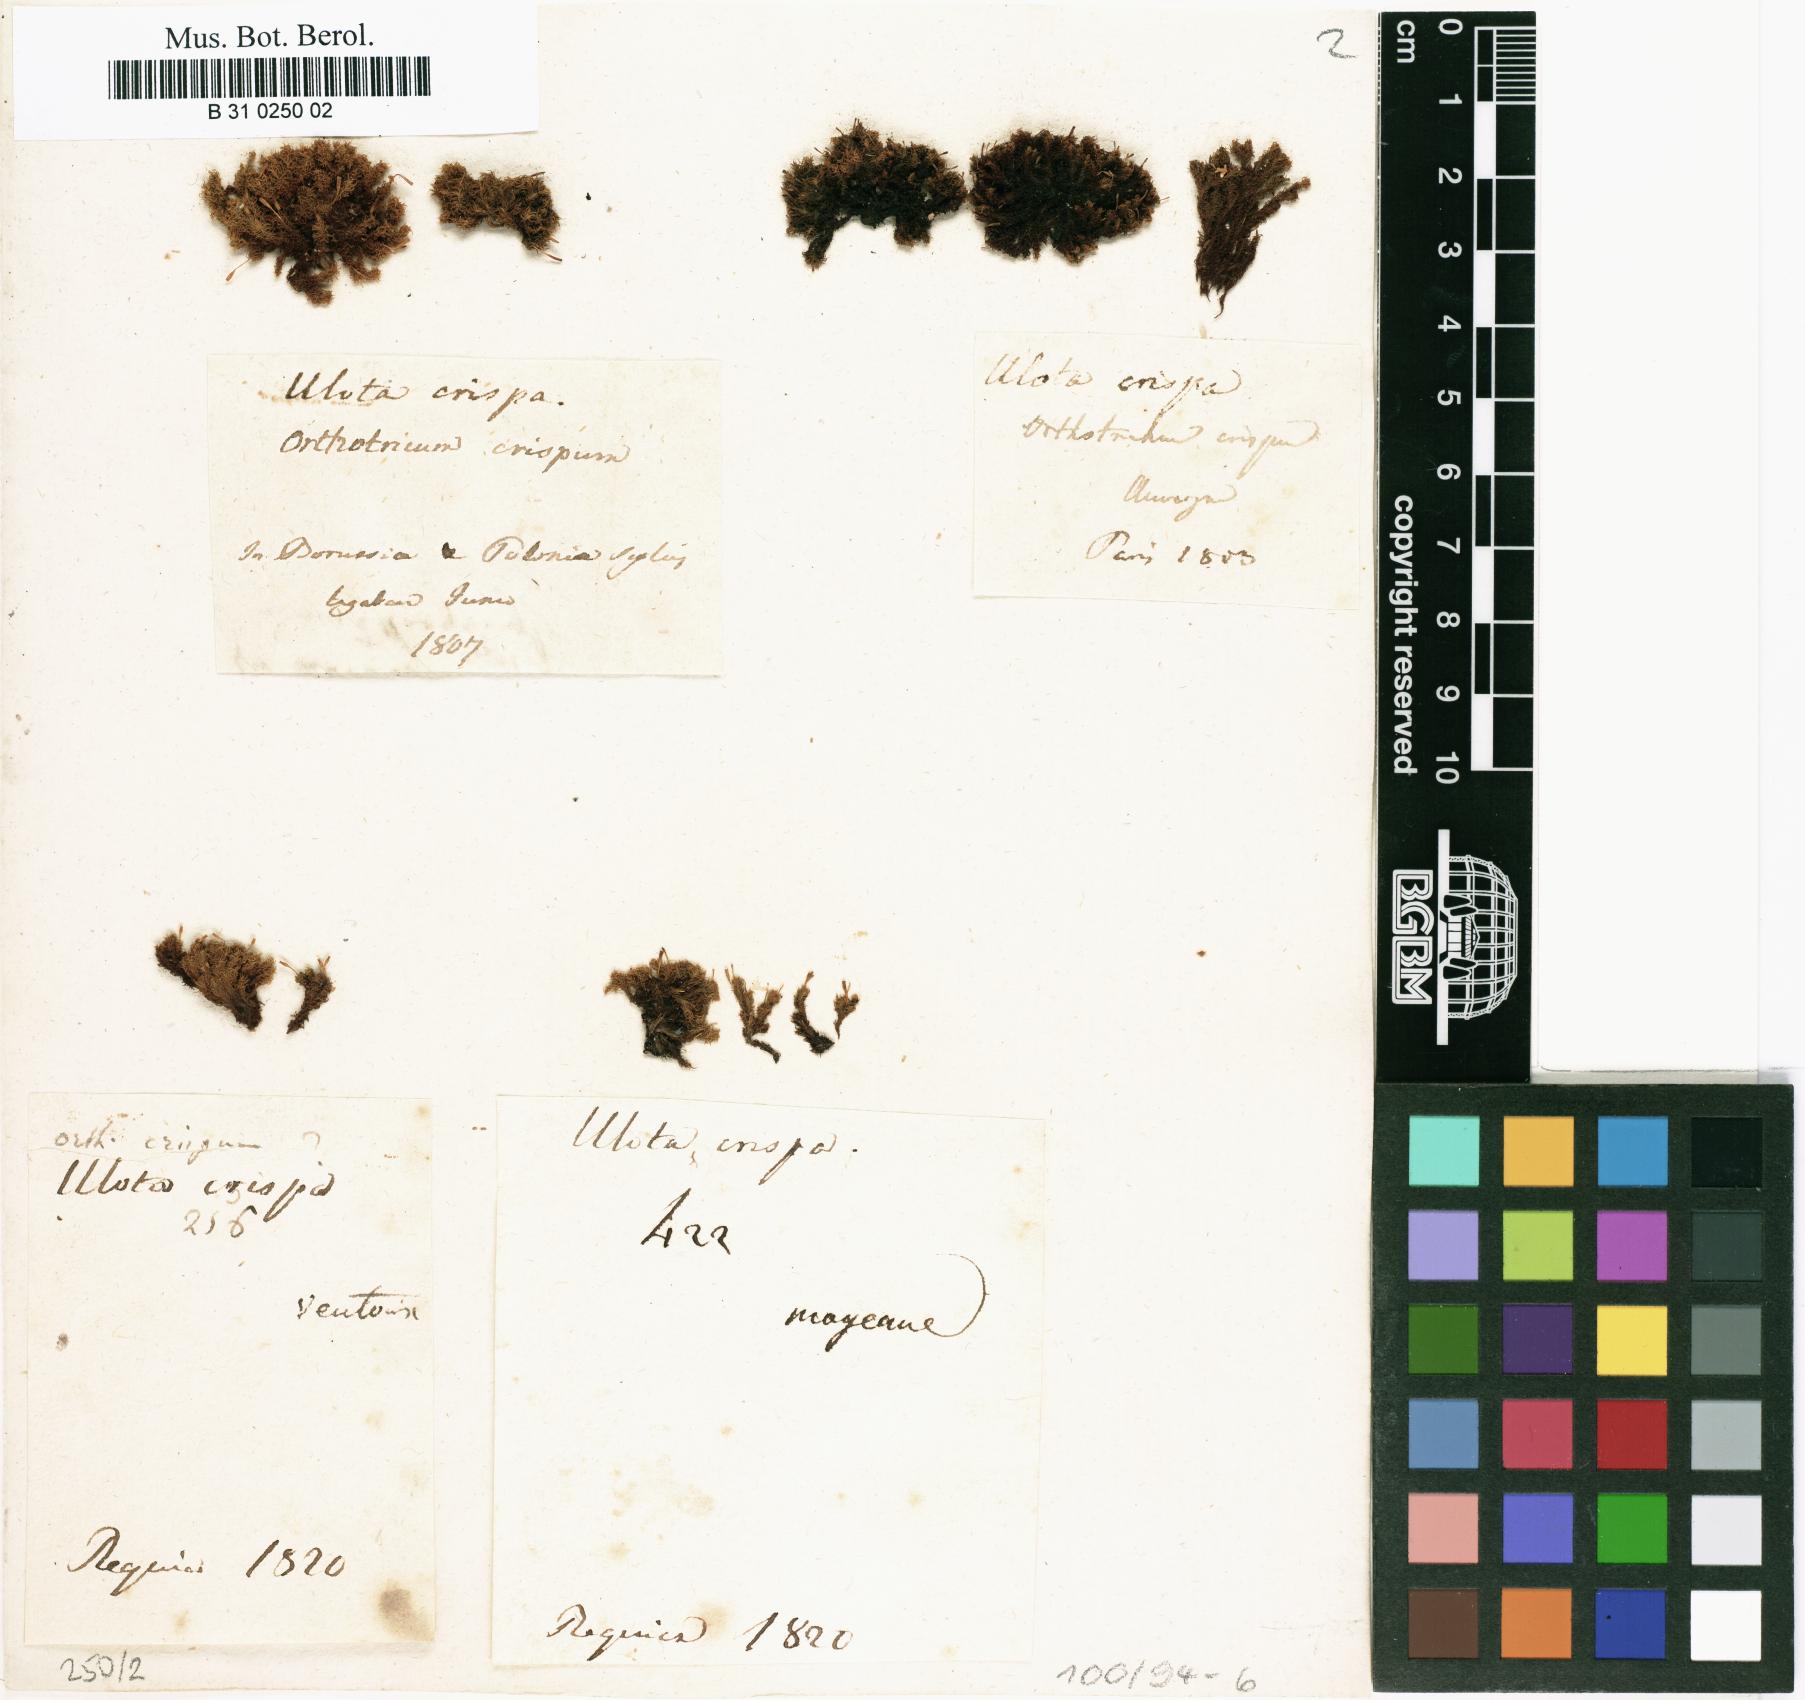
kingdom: Plantae
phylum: Bryophyta
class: Bryopsida
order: Orthotrichales
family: Orthotrichaceae
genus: Ulota
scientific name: Ulota crispa
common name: Crisped pincushion moss
